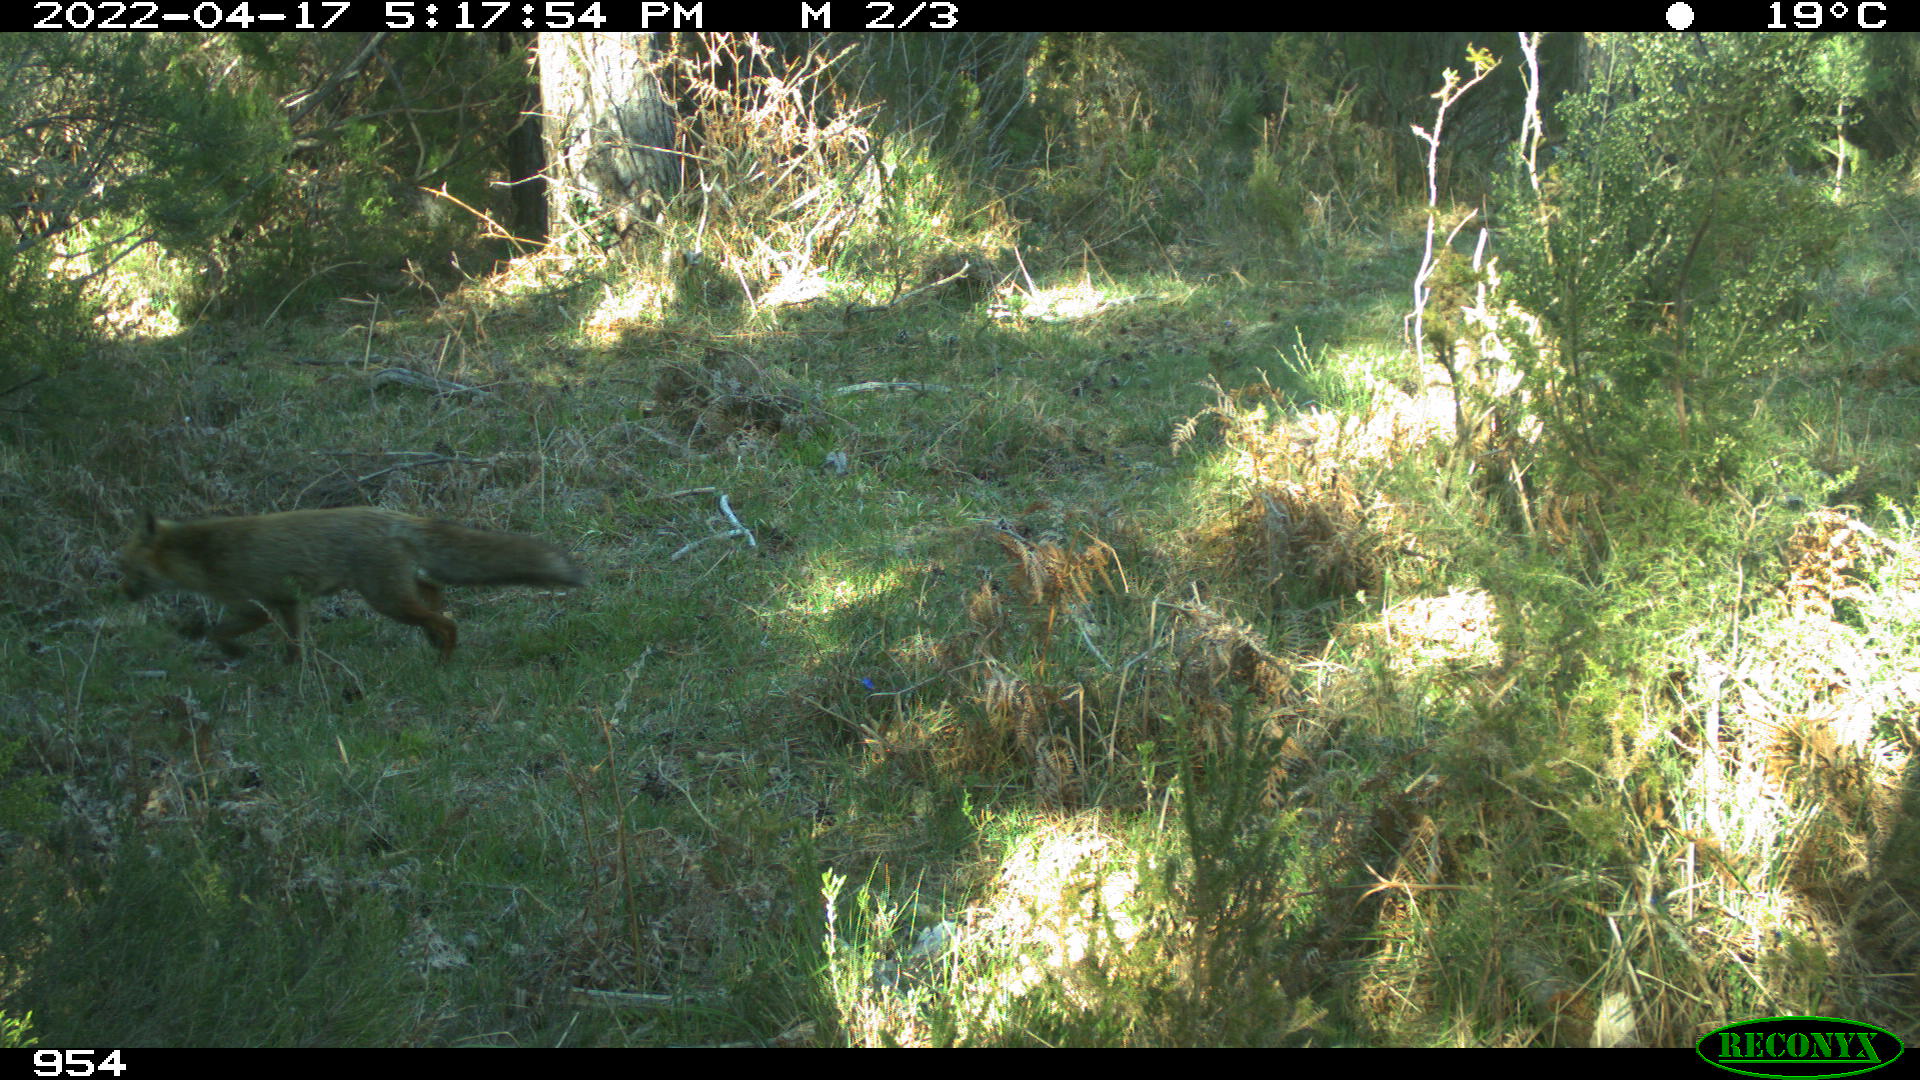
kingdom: Animalia
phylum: Chordata
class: Mammalia
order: Carnivora
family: Canidae
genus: Vulpes
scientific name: Vulpes vulpes
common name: Red fox
